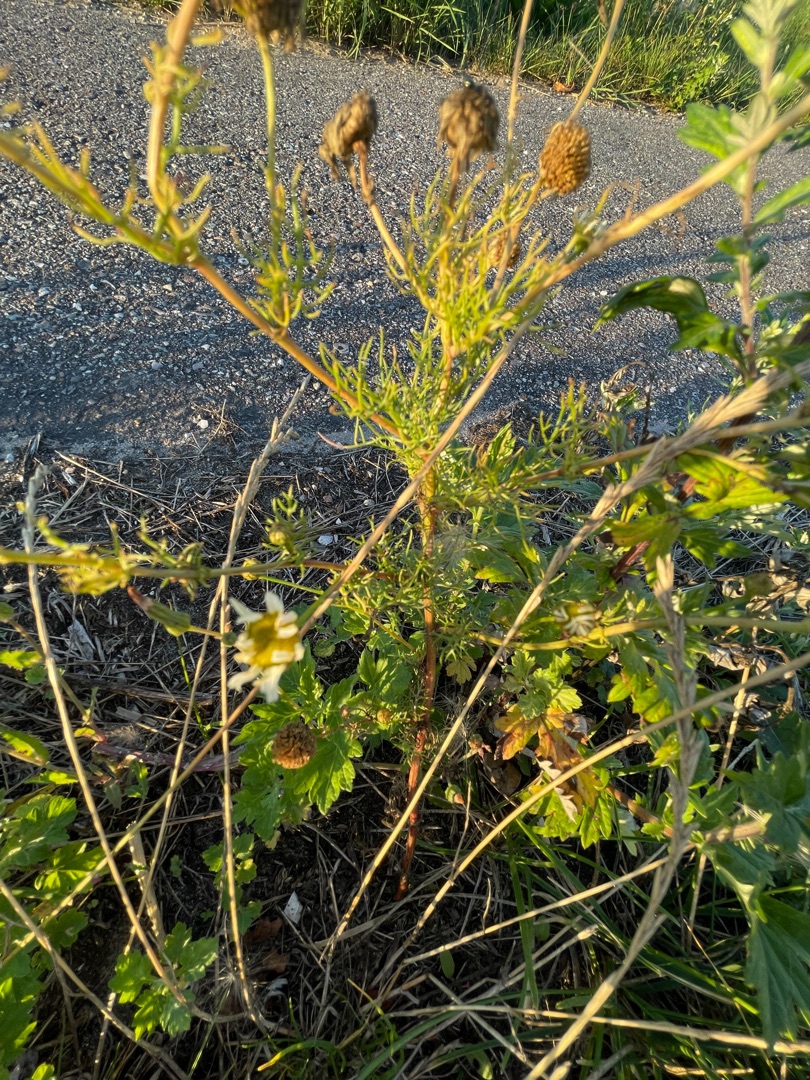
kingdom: Plantae
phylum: Tracheophyta
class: Magnoliopsida
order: Asterales
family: Asteraceae
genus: Tripleurospermum
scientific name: Tripleurospermum inodorum
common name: Lugtløs kamille
